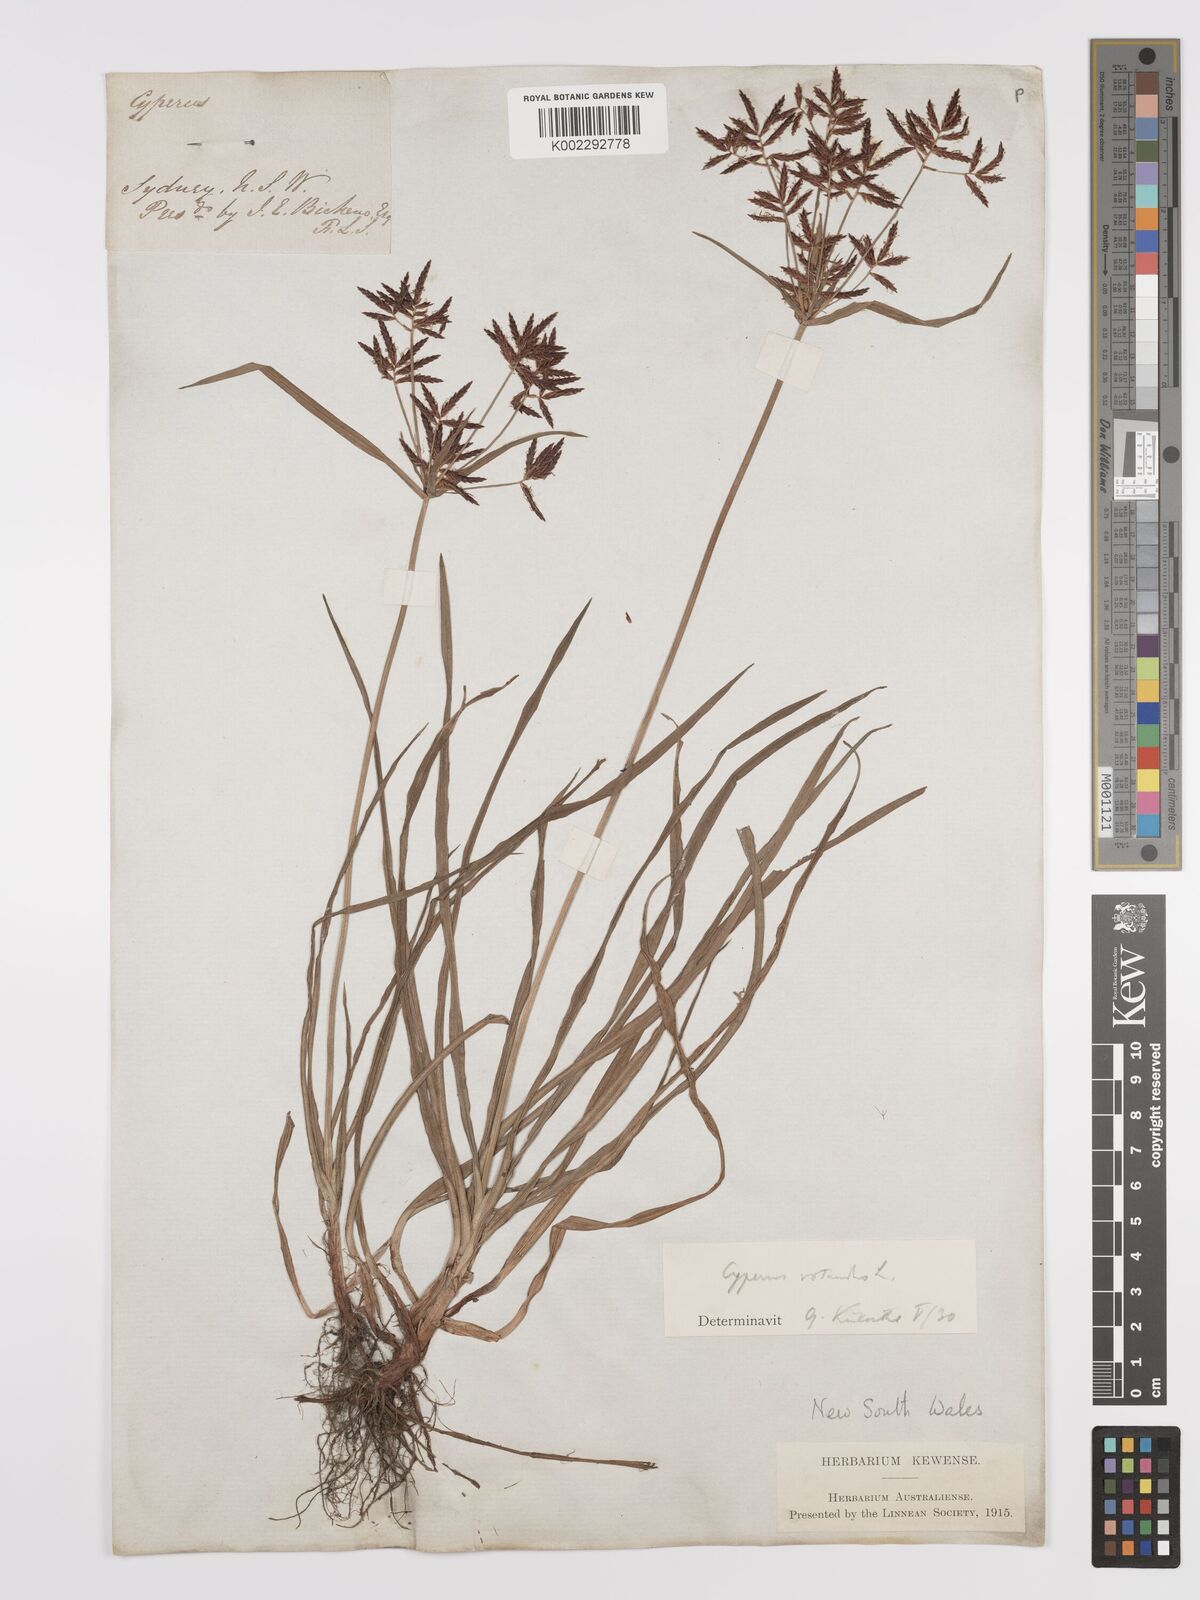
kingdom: Plantae
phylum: Tracheophyta
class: Liliopsida
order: Poales
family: Cyperaceae
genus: Cyperus
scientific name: Cyperus rotundus
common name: Nutgrass
